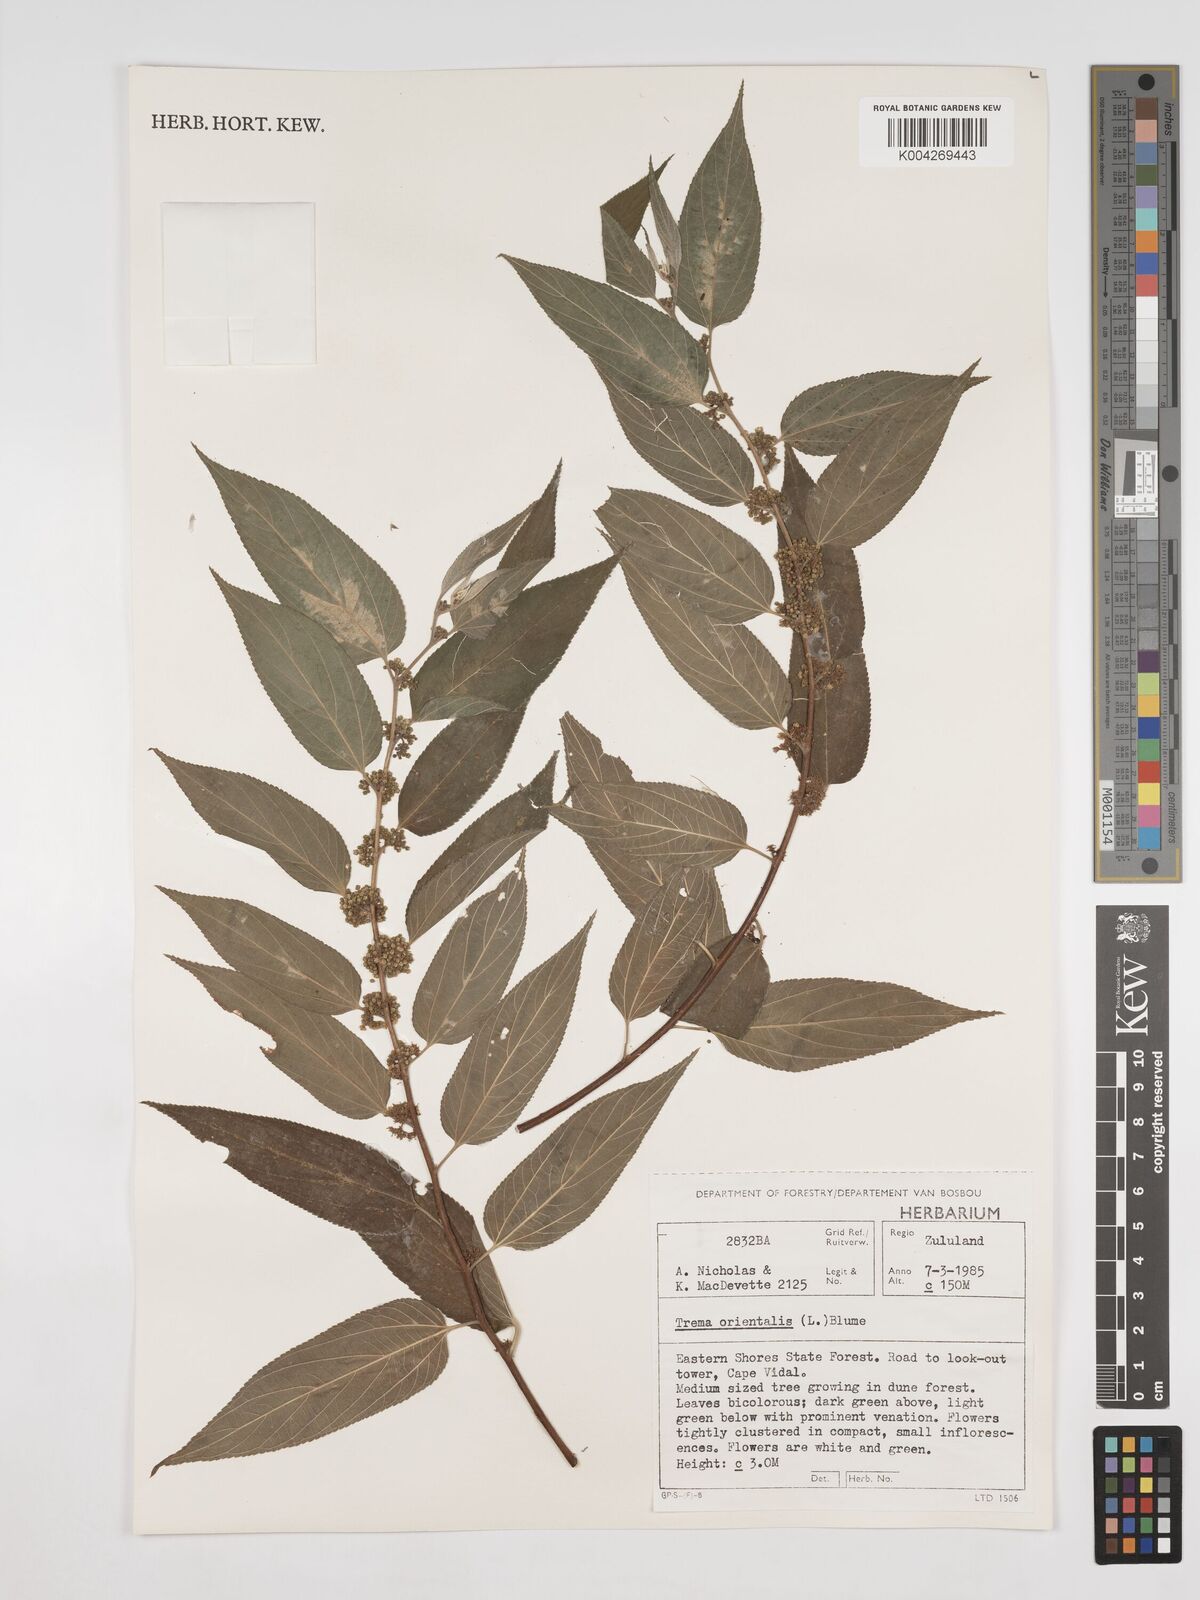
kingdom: Plantae
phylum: Tracheophyta
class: Magnoliopsida
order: Rosales
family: Cannabaceae
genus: Trema
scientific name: Trema orientale
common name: Indian charcoal tree
